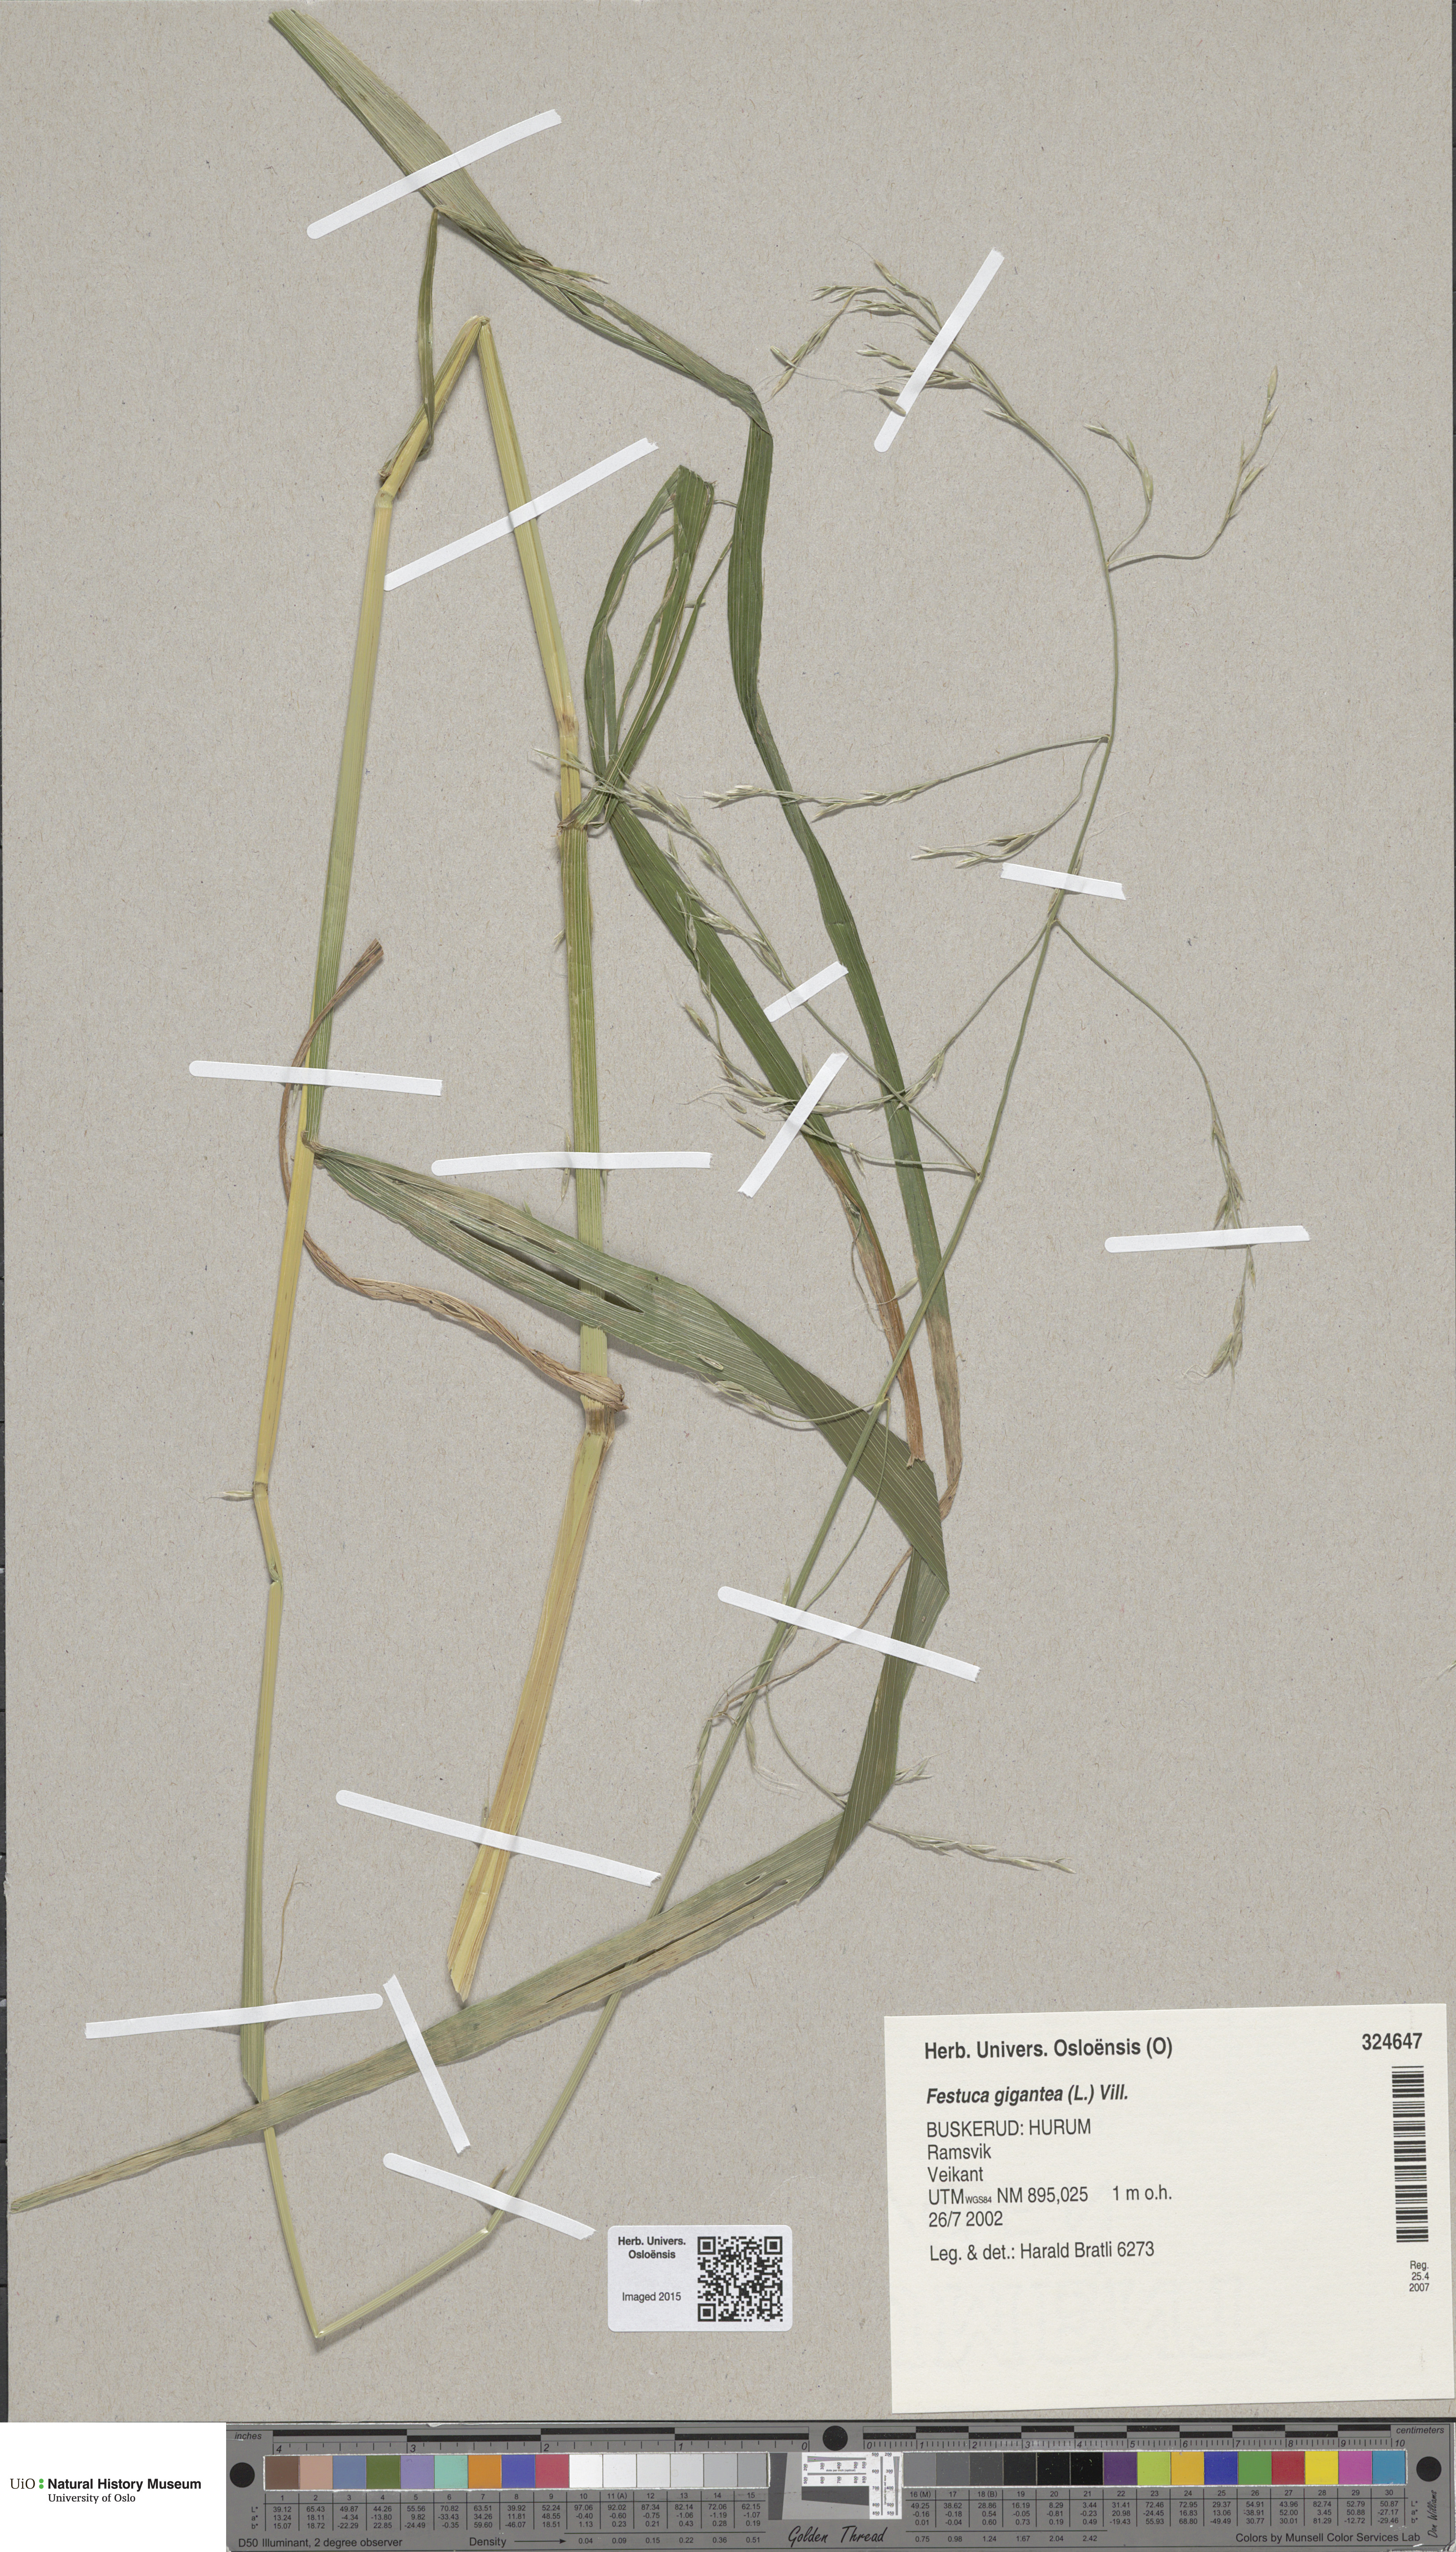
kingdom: Plantae
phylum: Tracheophyta
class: Liliopsida
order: Poales
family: Poaceae
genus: Lolium
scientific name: Lolium giganteum
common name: Giant fescue
